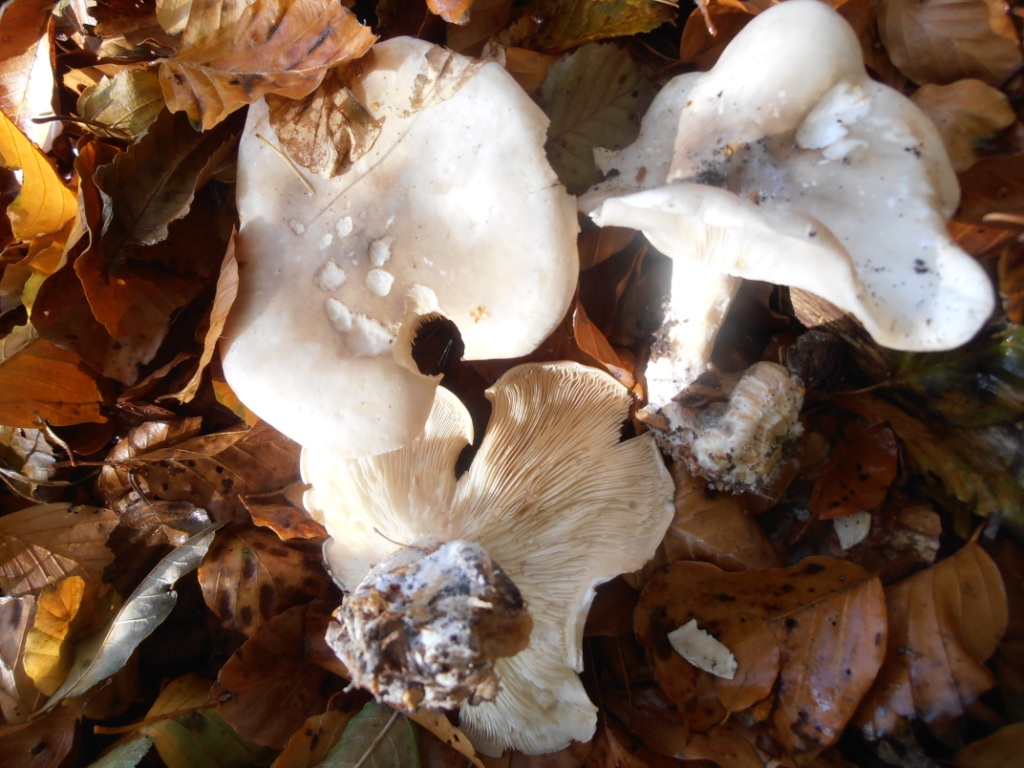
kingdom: Fungi
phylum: Basidiomycota
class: Agaricomycetes
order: Agaricales
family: Tricholomataceae
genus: Tricholoma
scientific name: Tricholoma lascivum
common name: stinkende ridderhat
